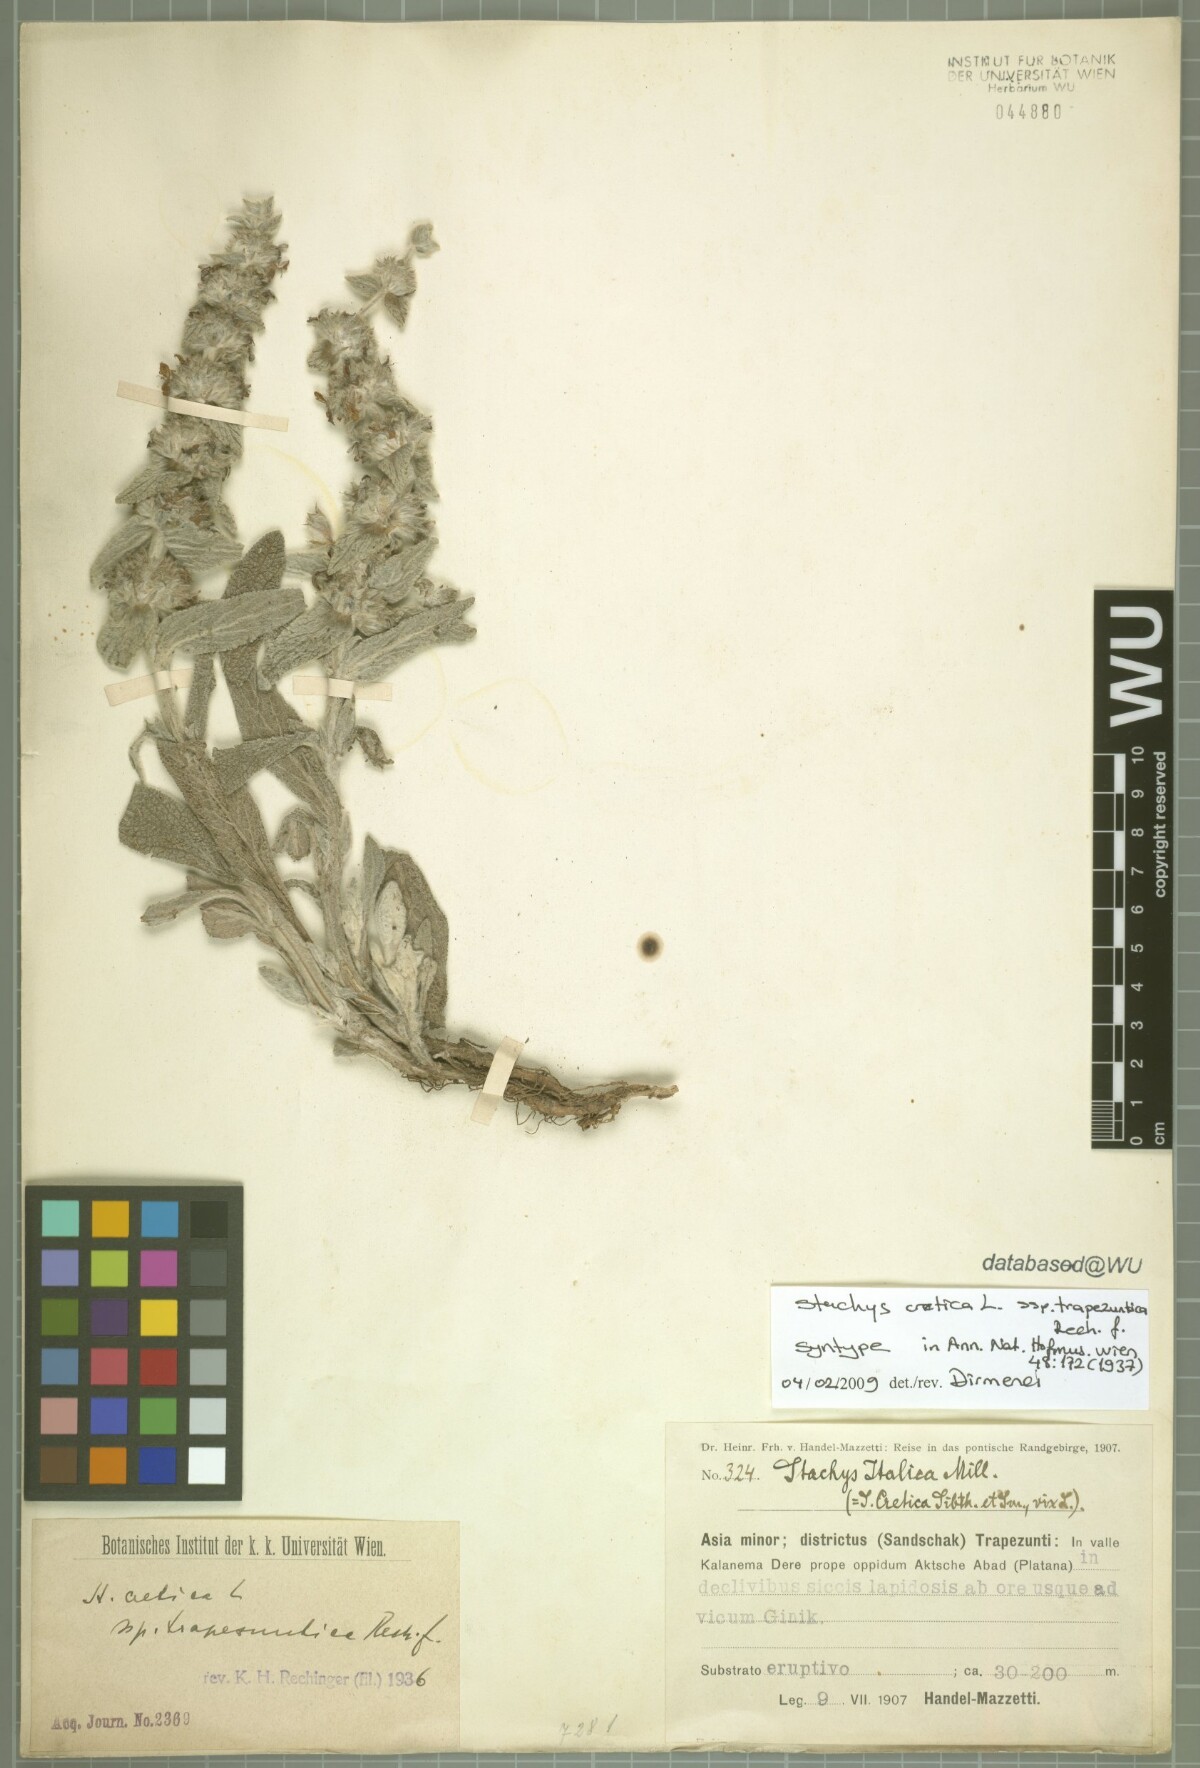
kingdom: Plantae
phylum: Tracheophyta
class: Magnoliopsida
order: Lamiales
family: Lamiaceae
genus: Stachys
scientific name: Stachys cretica
